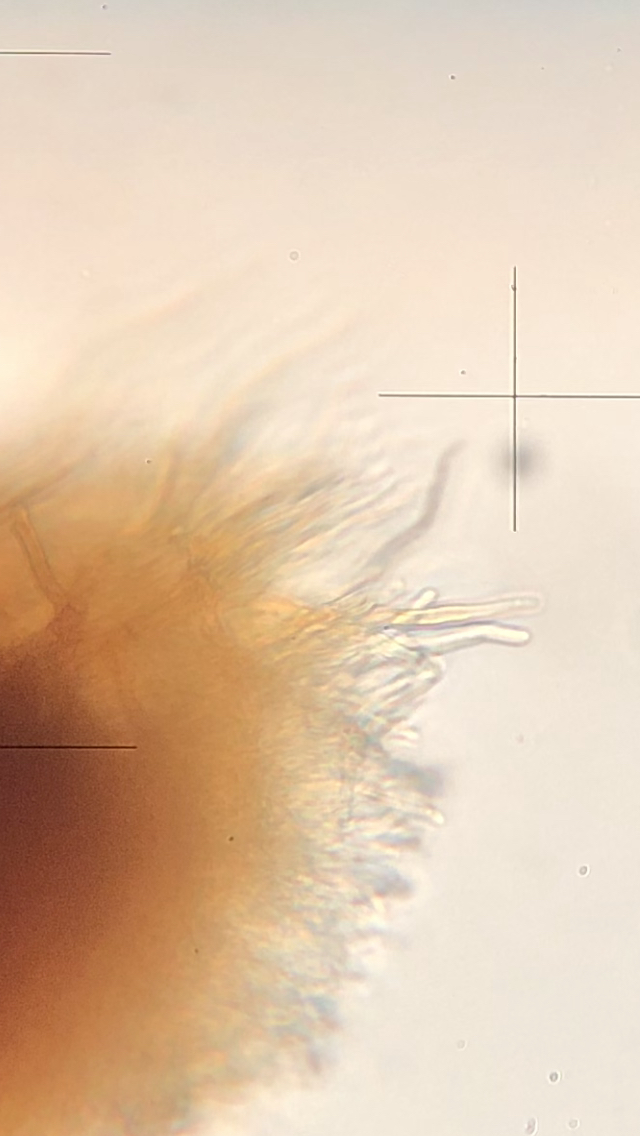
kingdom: Fungi
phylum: Basidiomycota
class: Agaricomycetes
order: Hymenochaetales
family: Hymenochaetaceae
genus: Phellinus
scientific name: Phellinus populicola
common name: poppel-ildporesvamp
